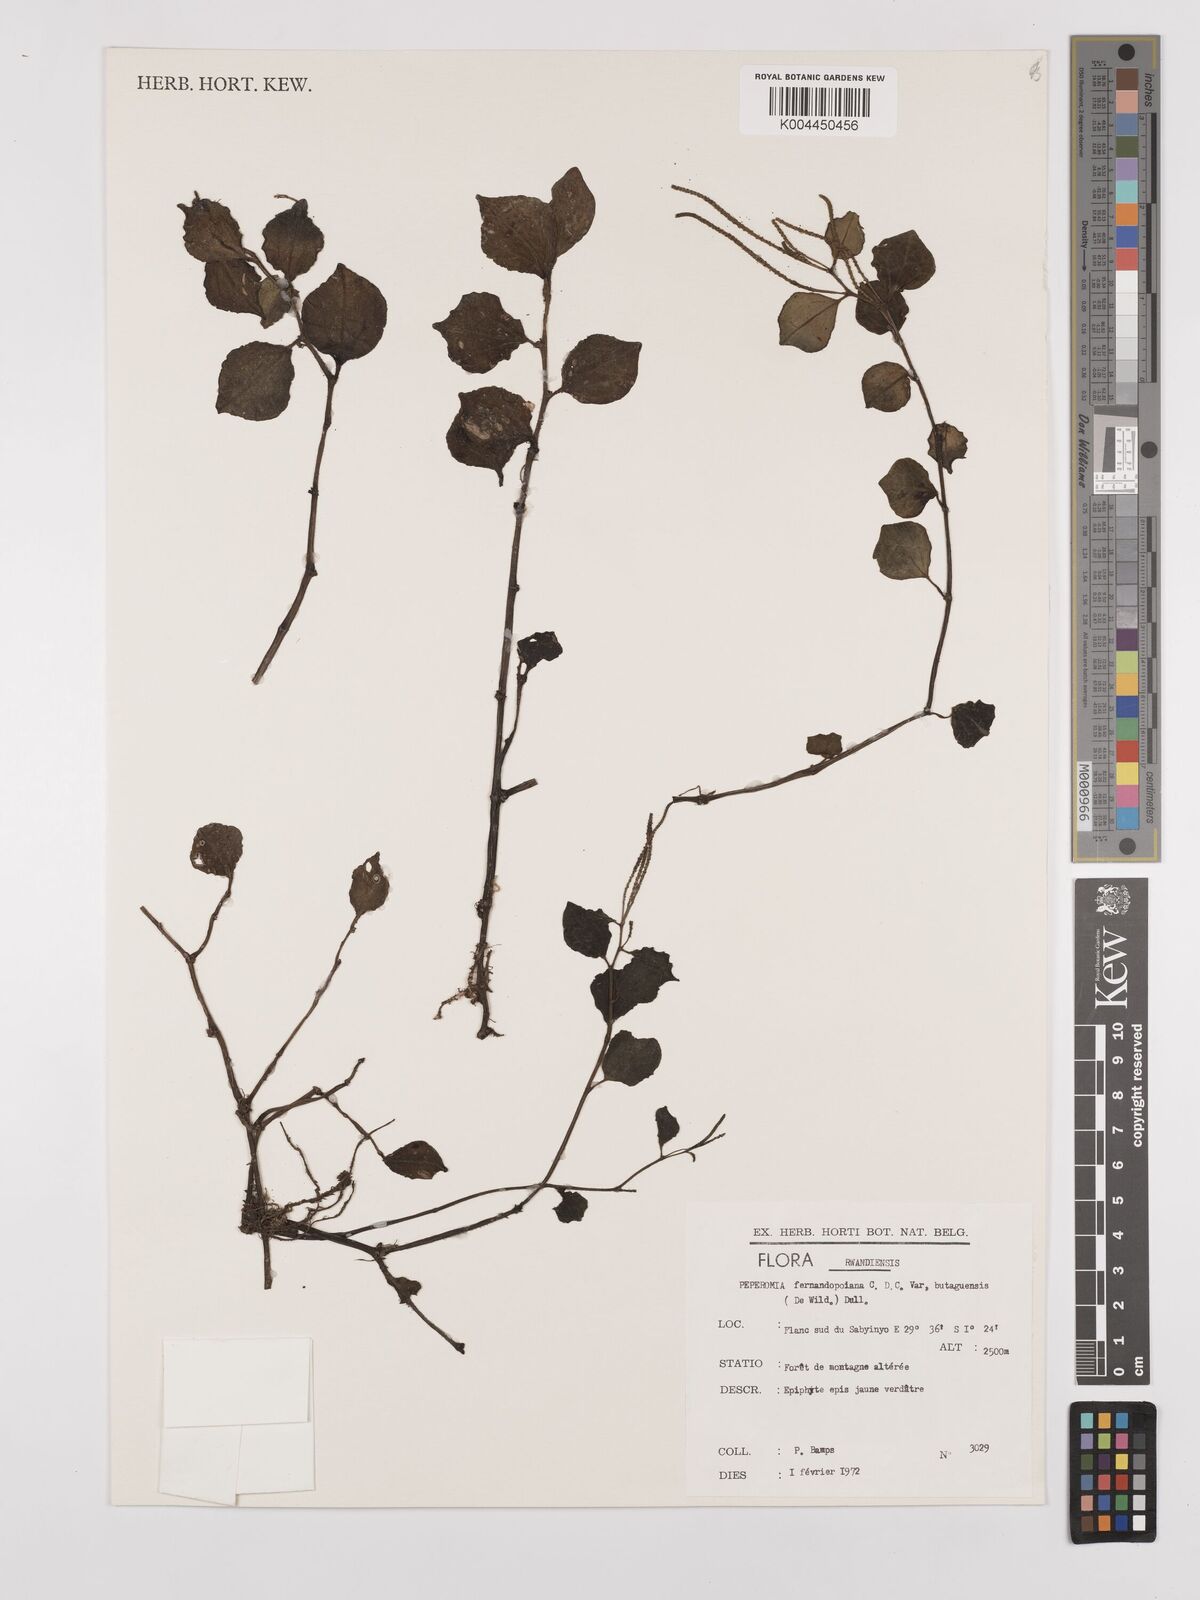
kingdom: Plantae
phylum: Tracheophyta
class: Magnoliopsida
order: Piperales
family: Piperaceae
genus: Peperomia
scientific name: Peperomia fernandopoiana
